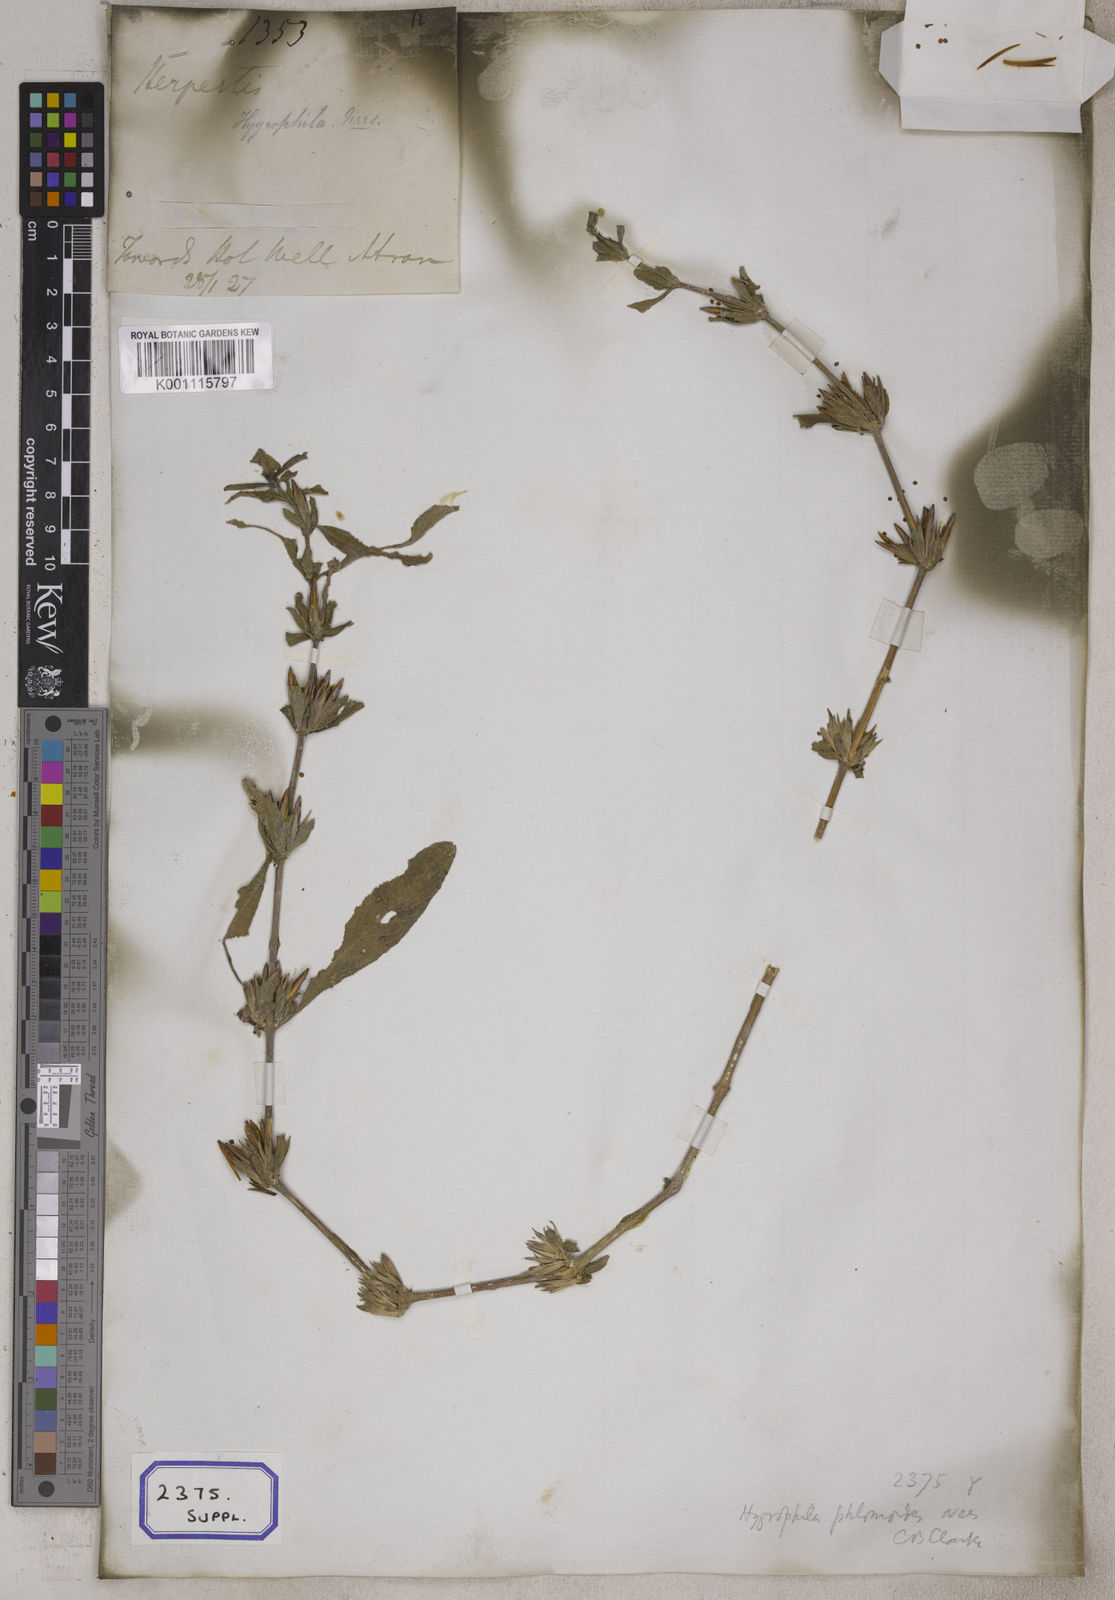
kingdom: Plantae
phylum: Tracheophyta
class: Magnoliopsida
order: Lamiales
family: Acanthaceae
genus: Ruellia
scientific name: Ruellia
